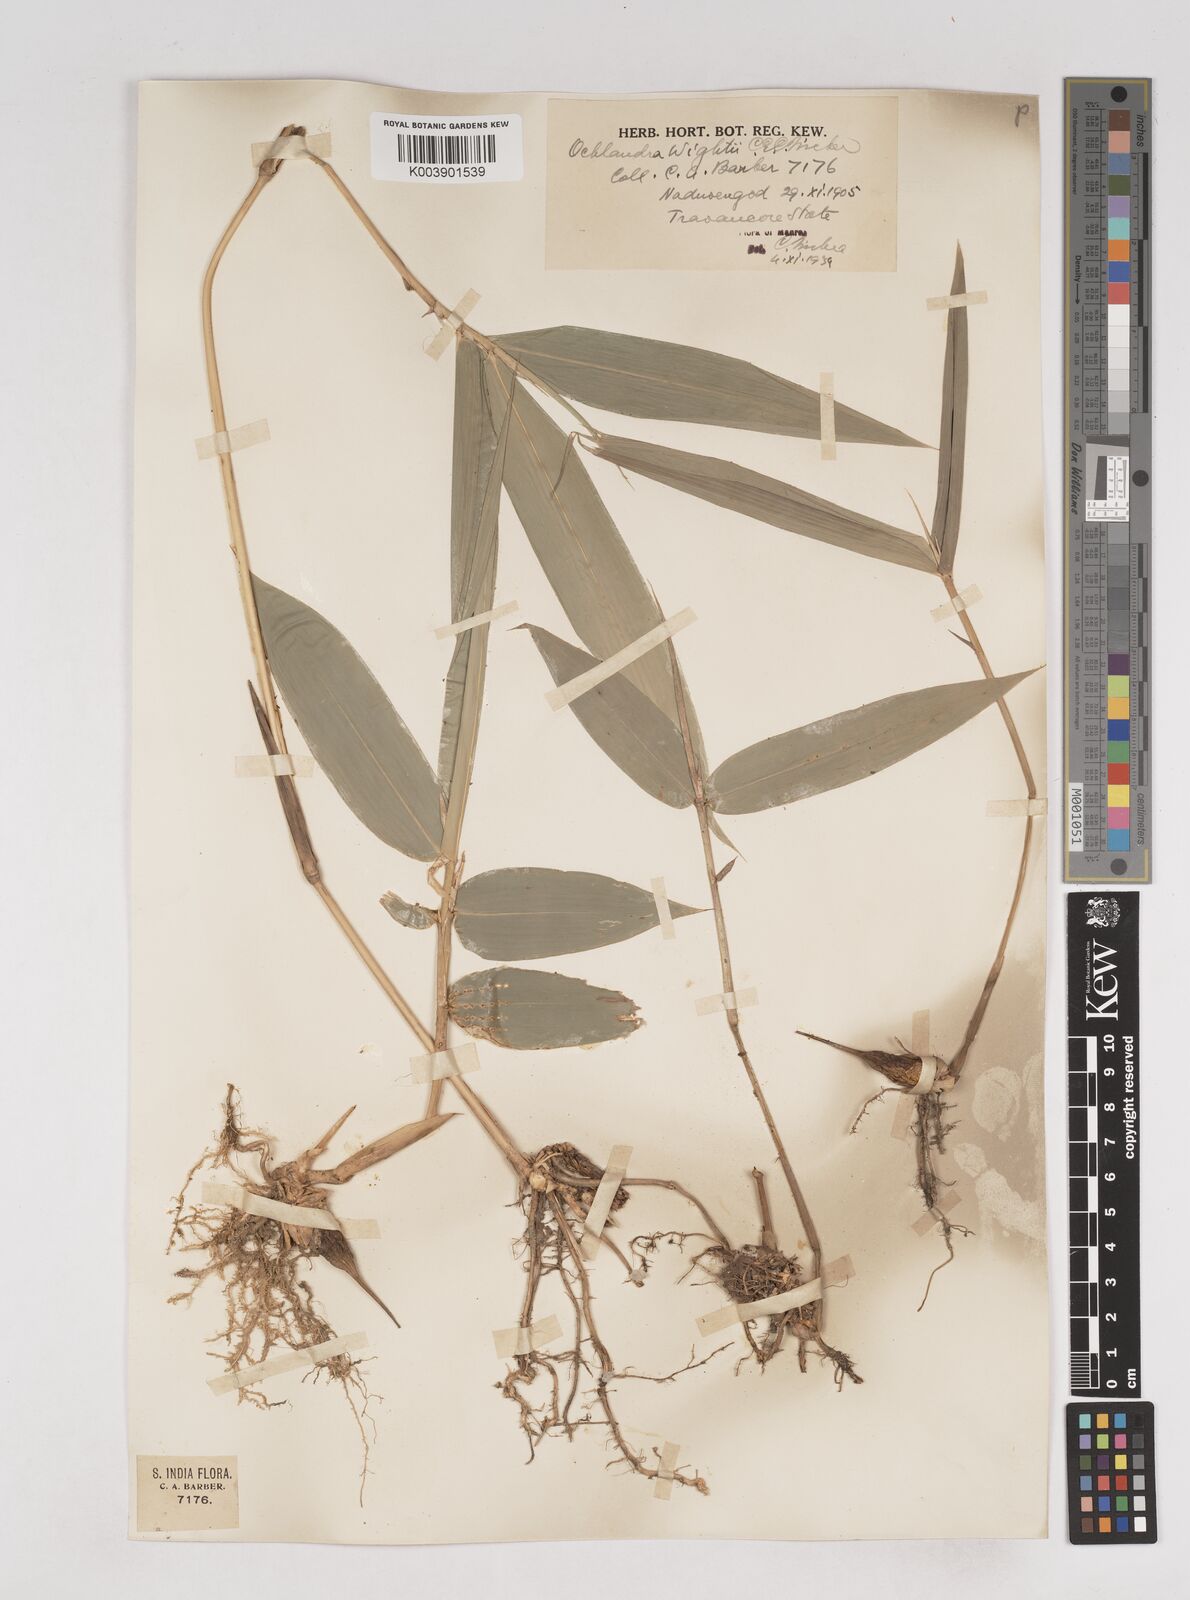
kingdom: Plantae
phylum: Tracheophyta
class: Liliopsida
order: Poales
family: Poaceae
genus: Ochlandra
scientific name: Ochlandra wightii
